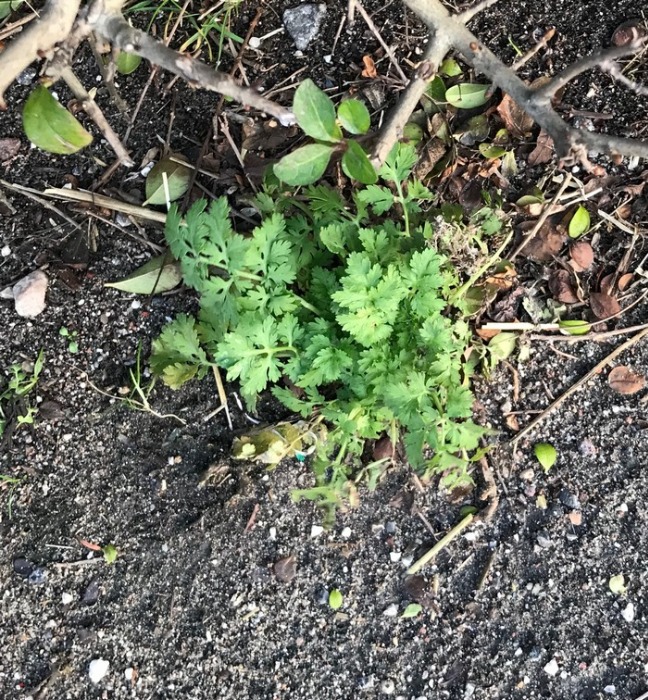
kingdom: Plantae
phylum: Tracheophyta
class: Magnoliopsida
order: Asterales
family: Asteraceae
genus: Tanacetum
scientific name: Tanacetum parthenium
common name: Matrem
